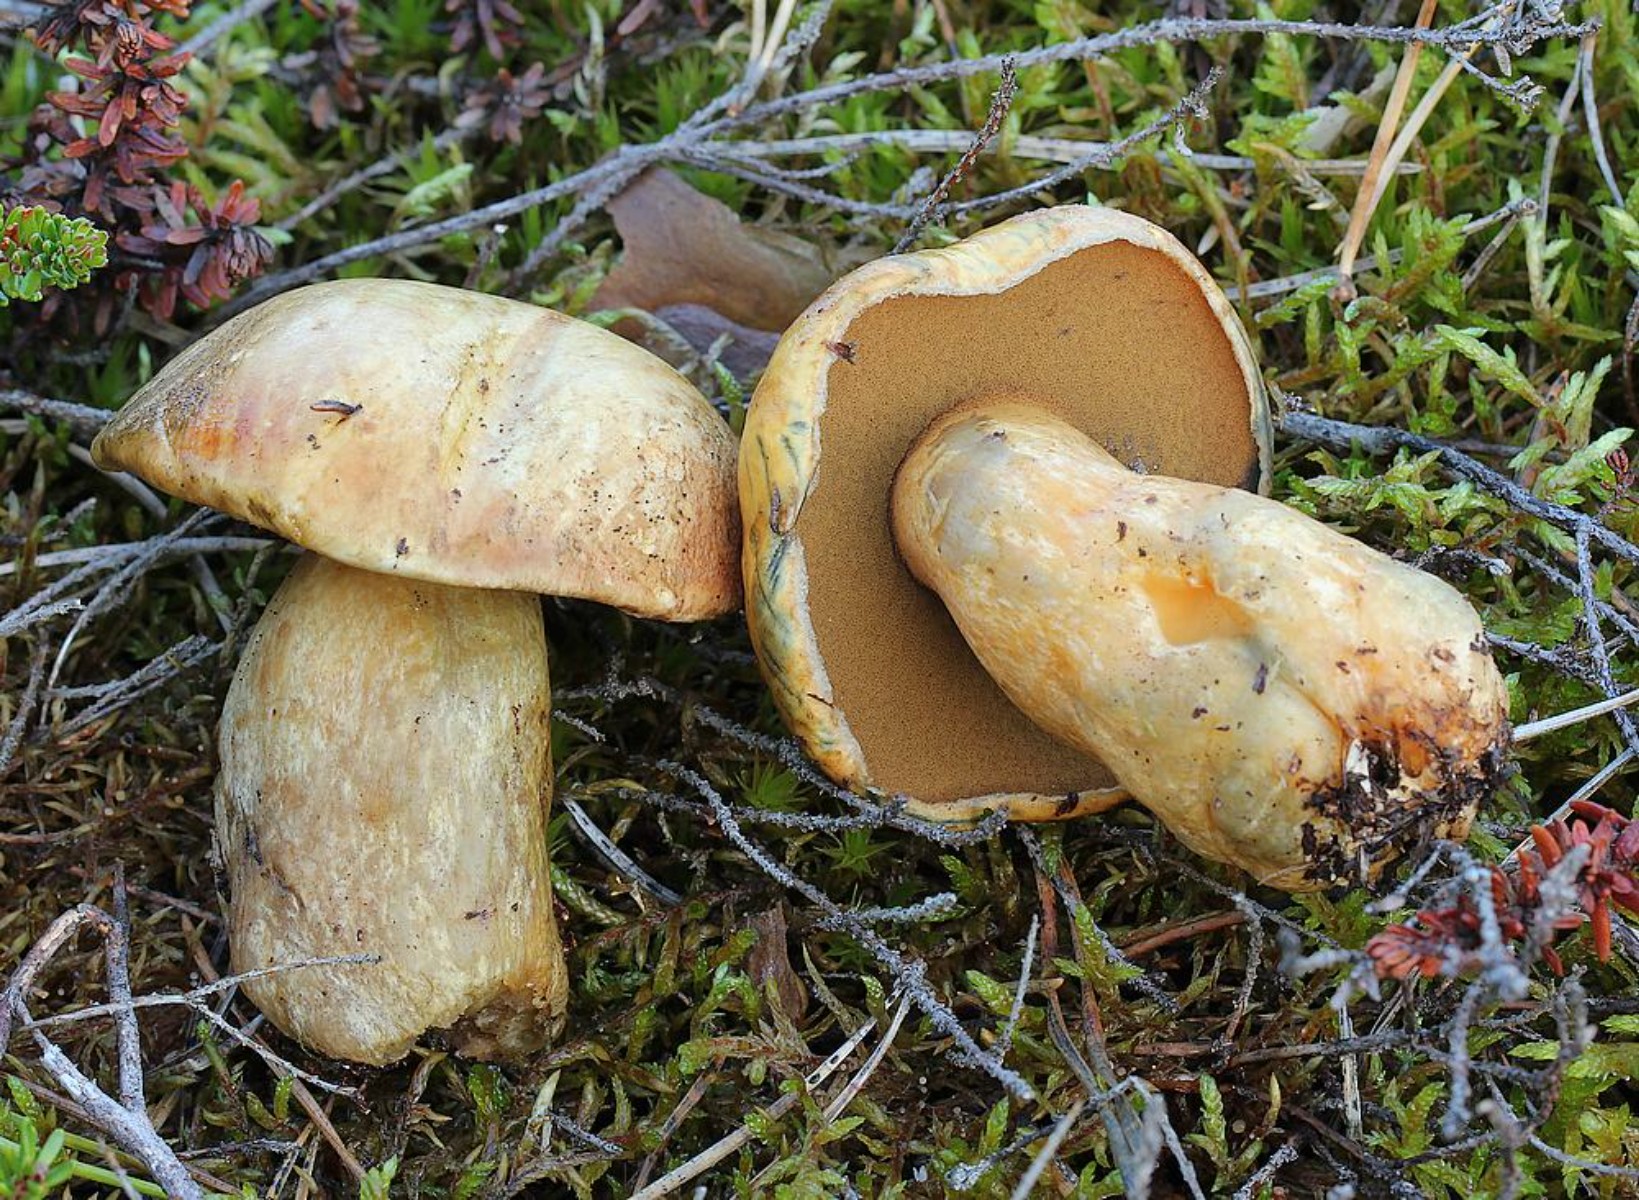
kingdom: Fungi
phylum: Basidiomycota
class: Agaricomycetes
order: Boletales
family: Suillaceae
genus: Suillus
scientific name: Suillus variegatus
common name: broget slimrørhat
